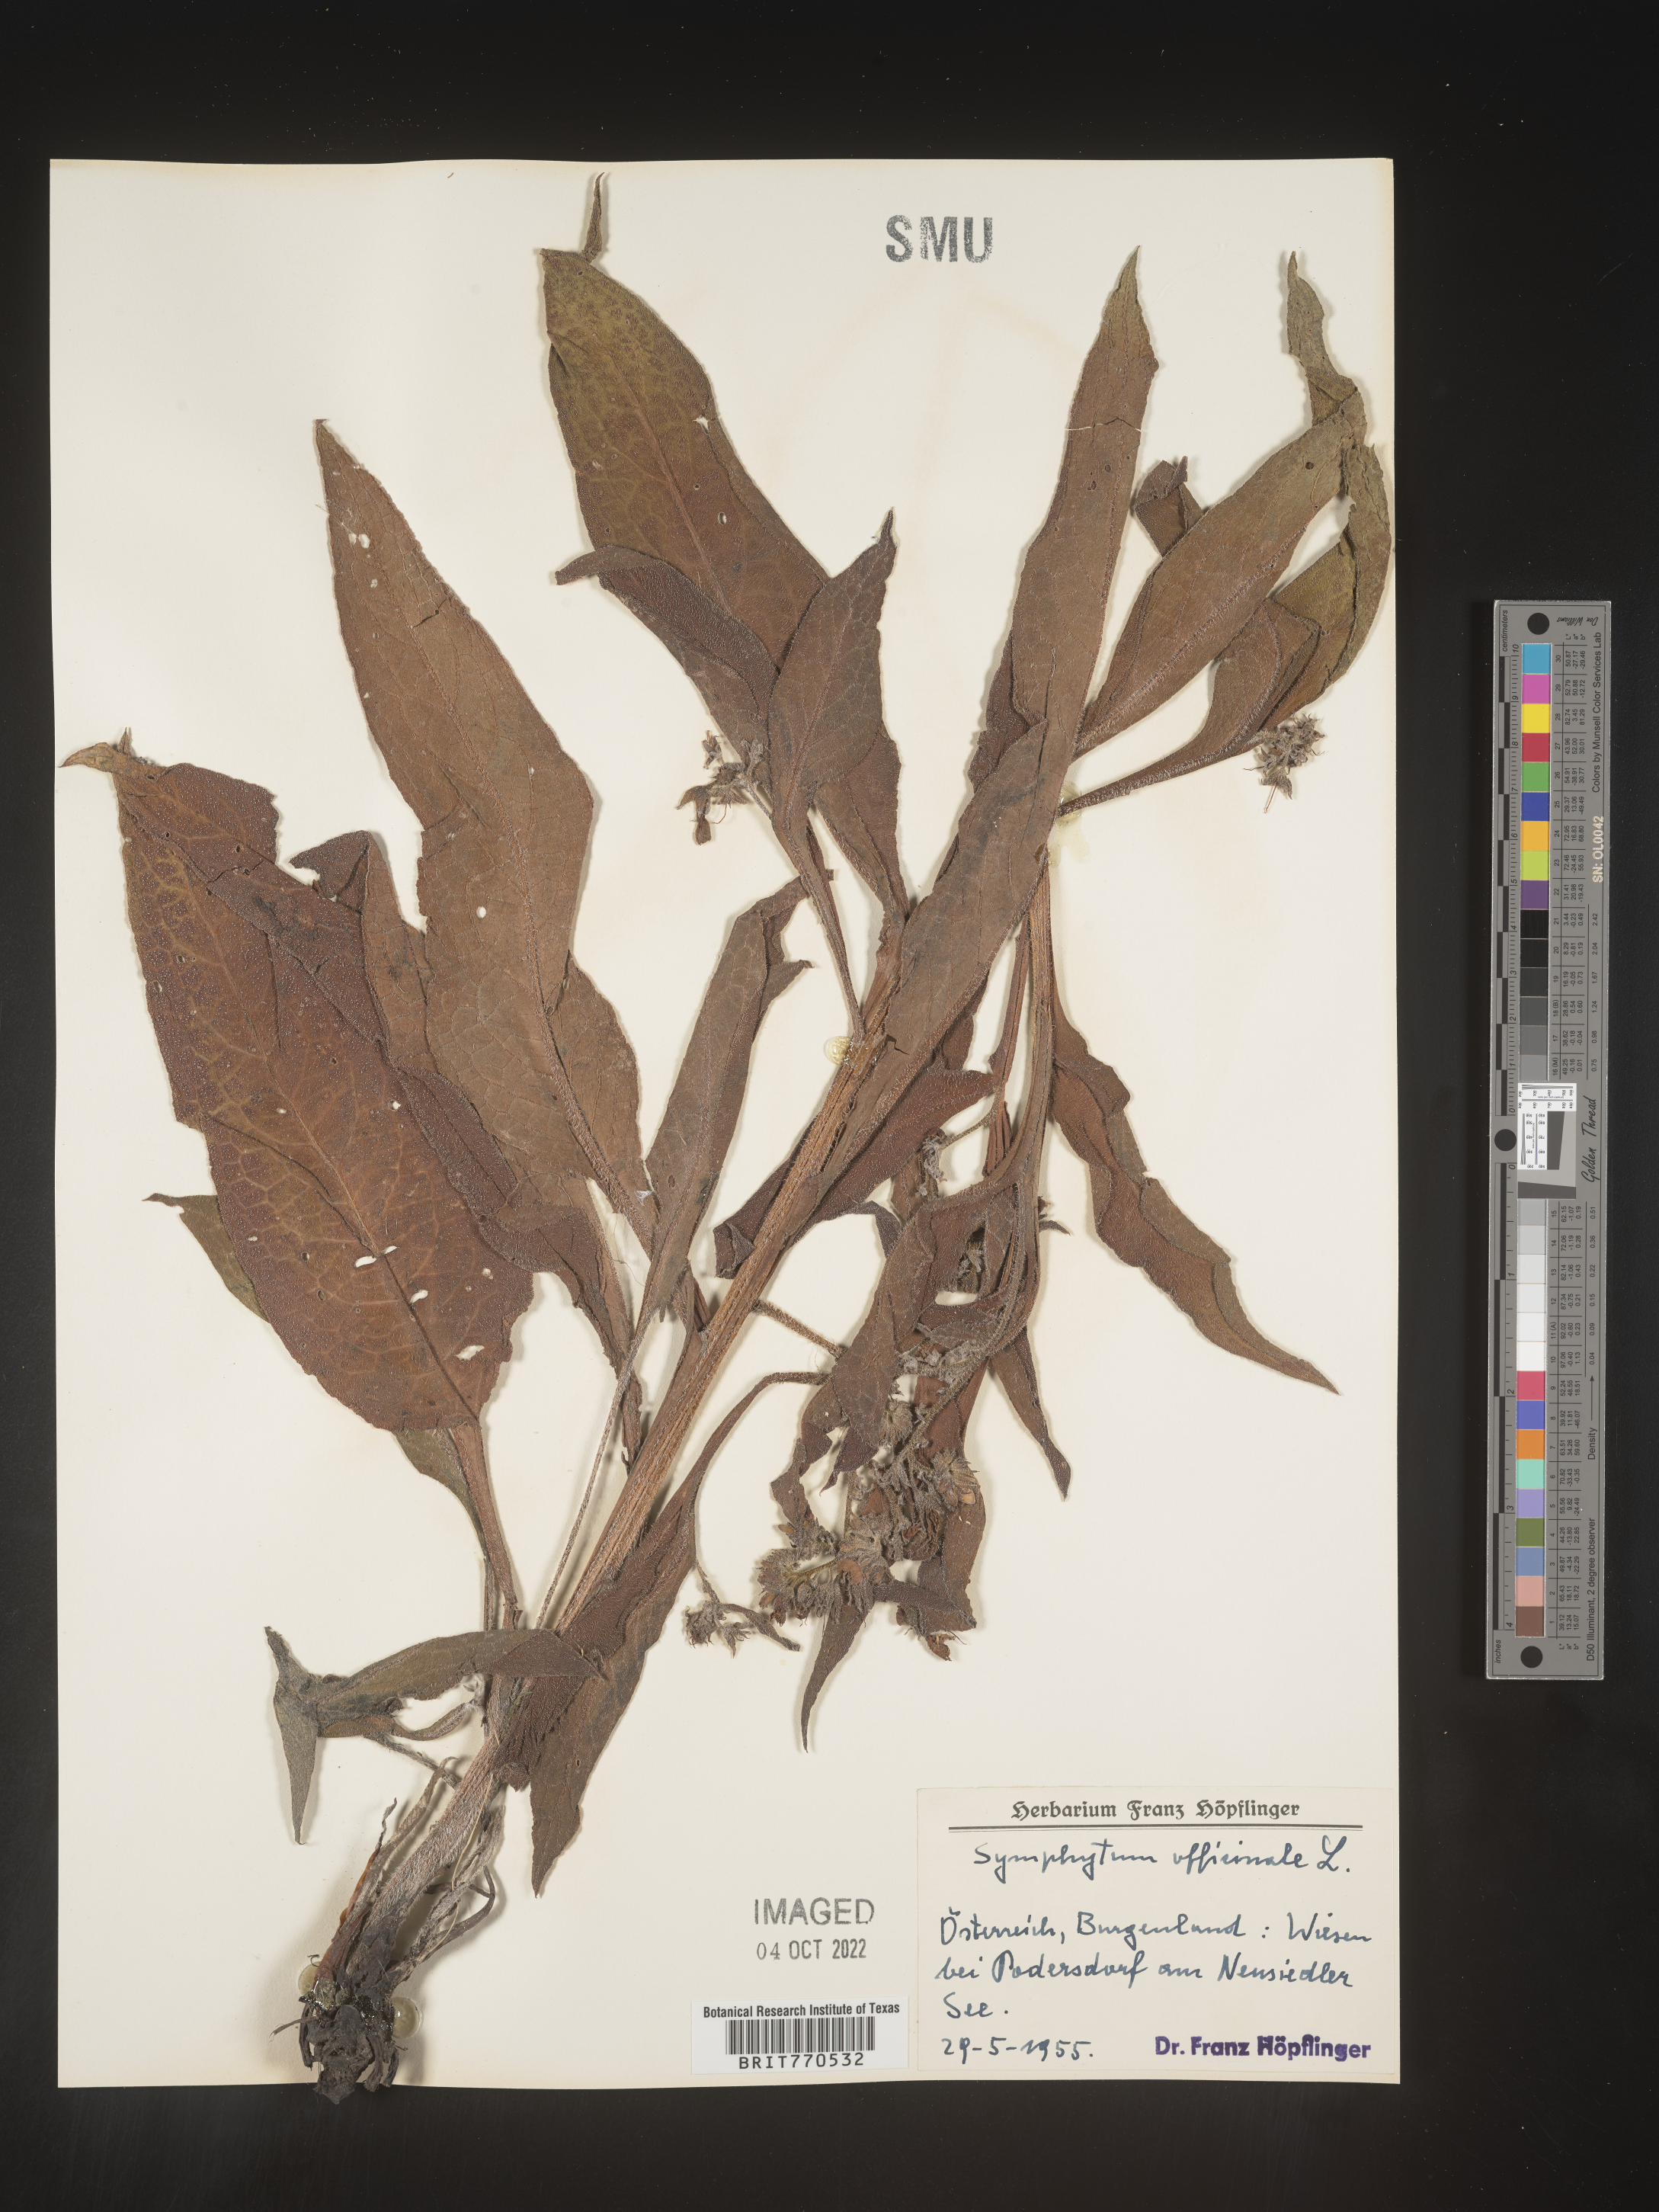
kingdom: Plantae
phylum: Tracheophyta
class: Magnoliopsida
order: Boraginales
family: Boraginaceae
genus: Symphytum
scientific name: Symphytum
